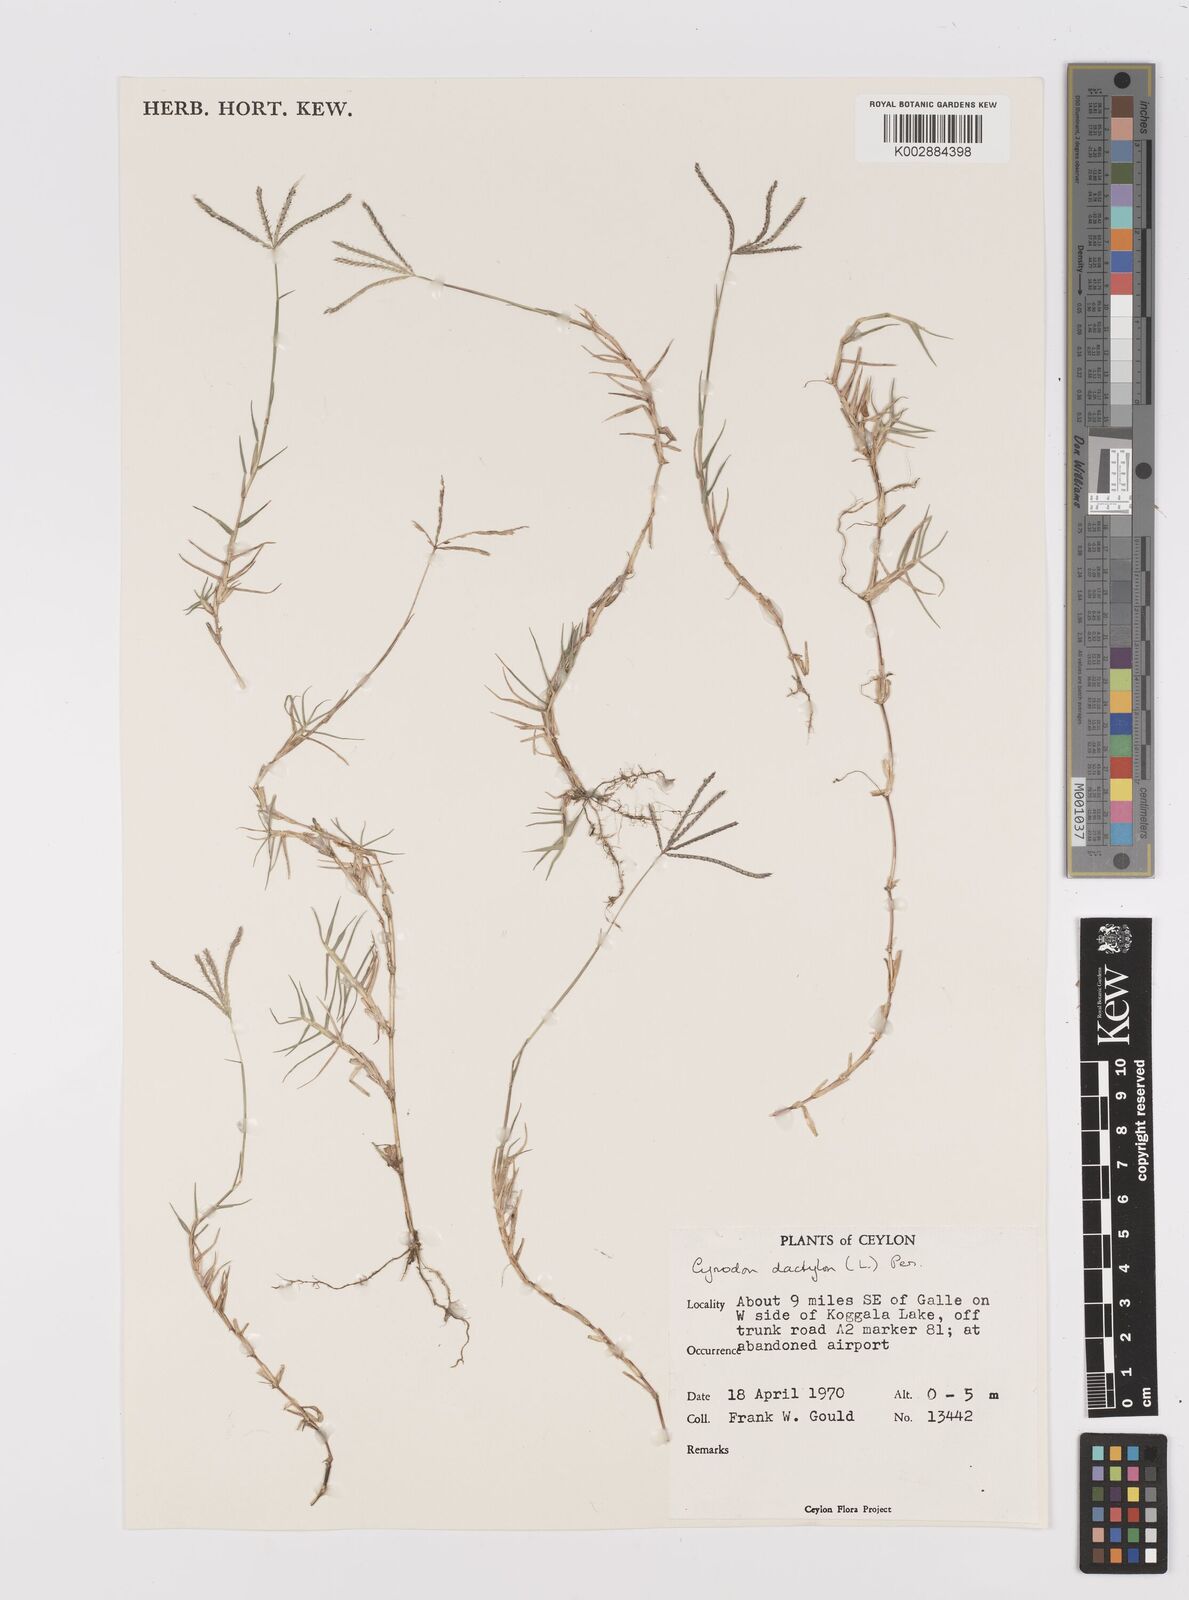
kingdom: Plantae
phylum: Tracheophyta
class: Liliopsida
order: Poales
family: Poaceae
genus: Cynodon
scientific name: Cynodon dactylon
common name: Bermuda grass
